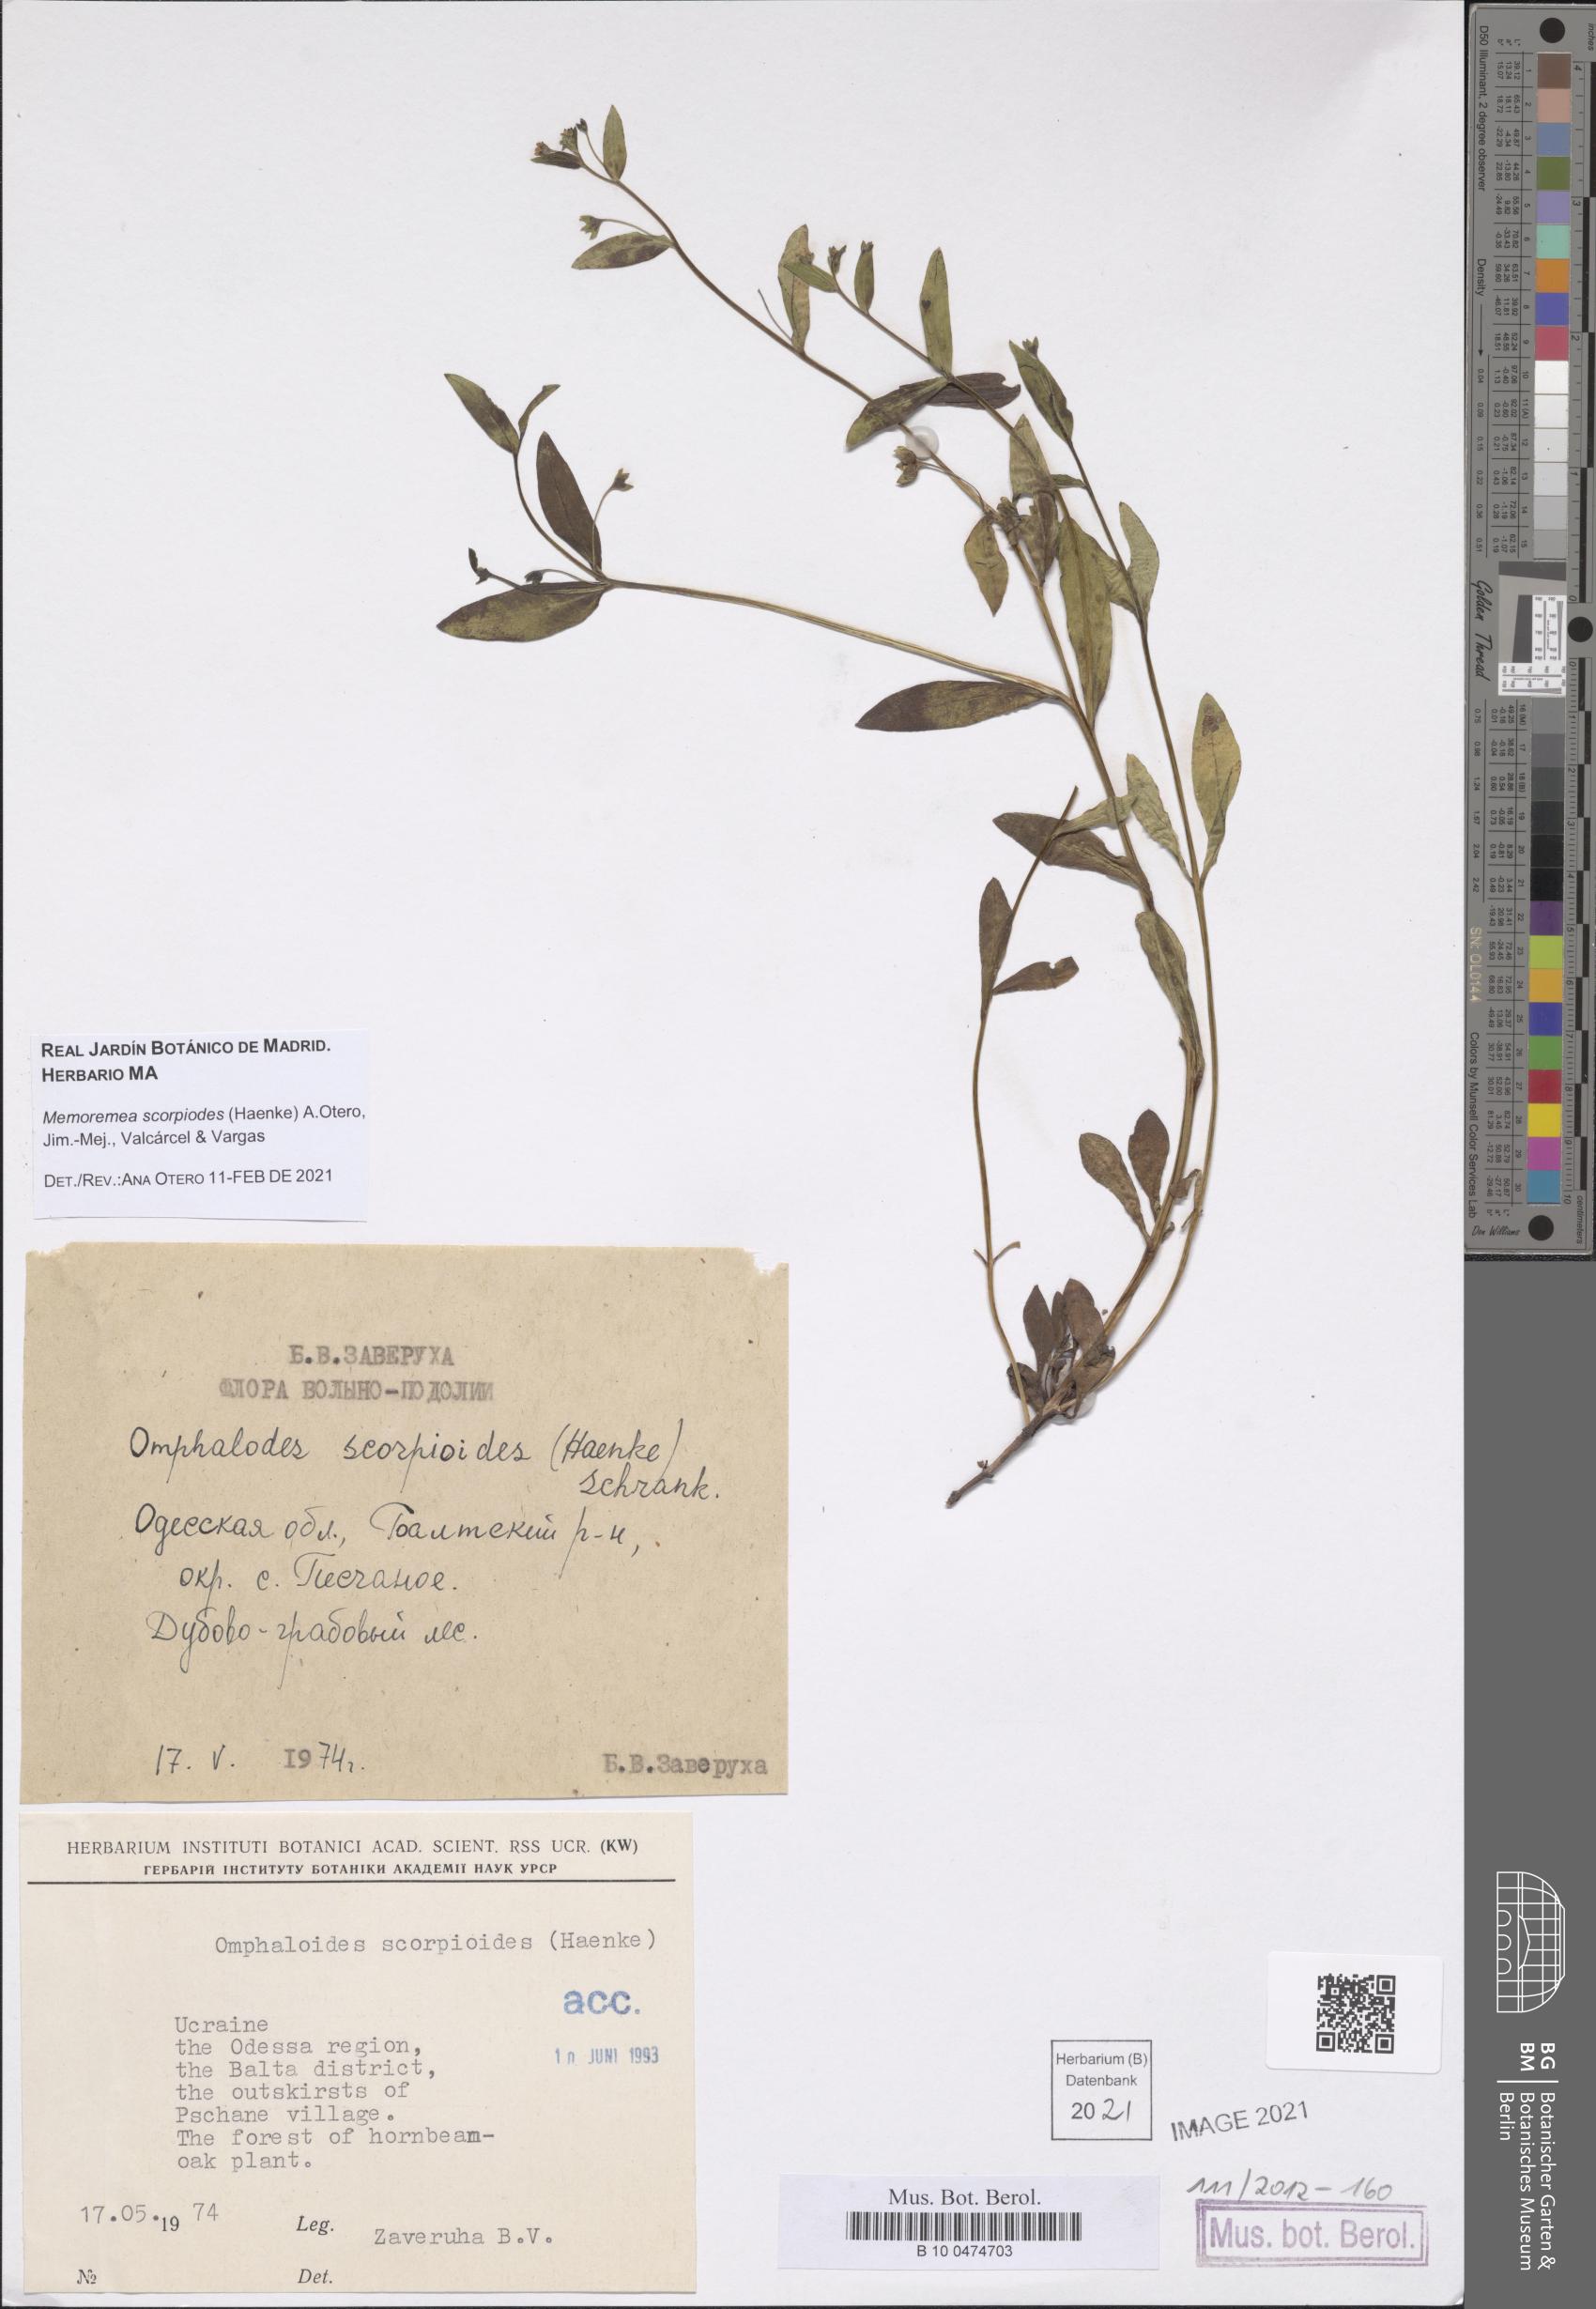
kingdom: Plantae
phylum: Tracheophyta
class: Magnoliopsida
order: Boraginales
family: Boraginaceae
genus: Memoremea
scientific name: Memoremea scorpioides
